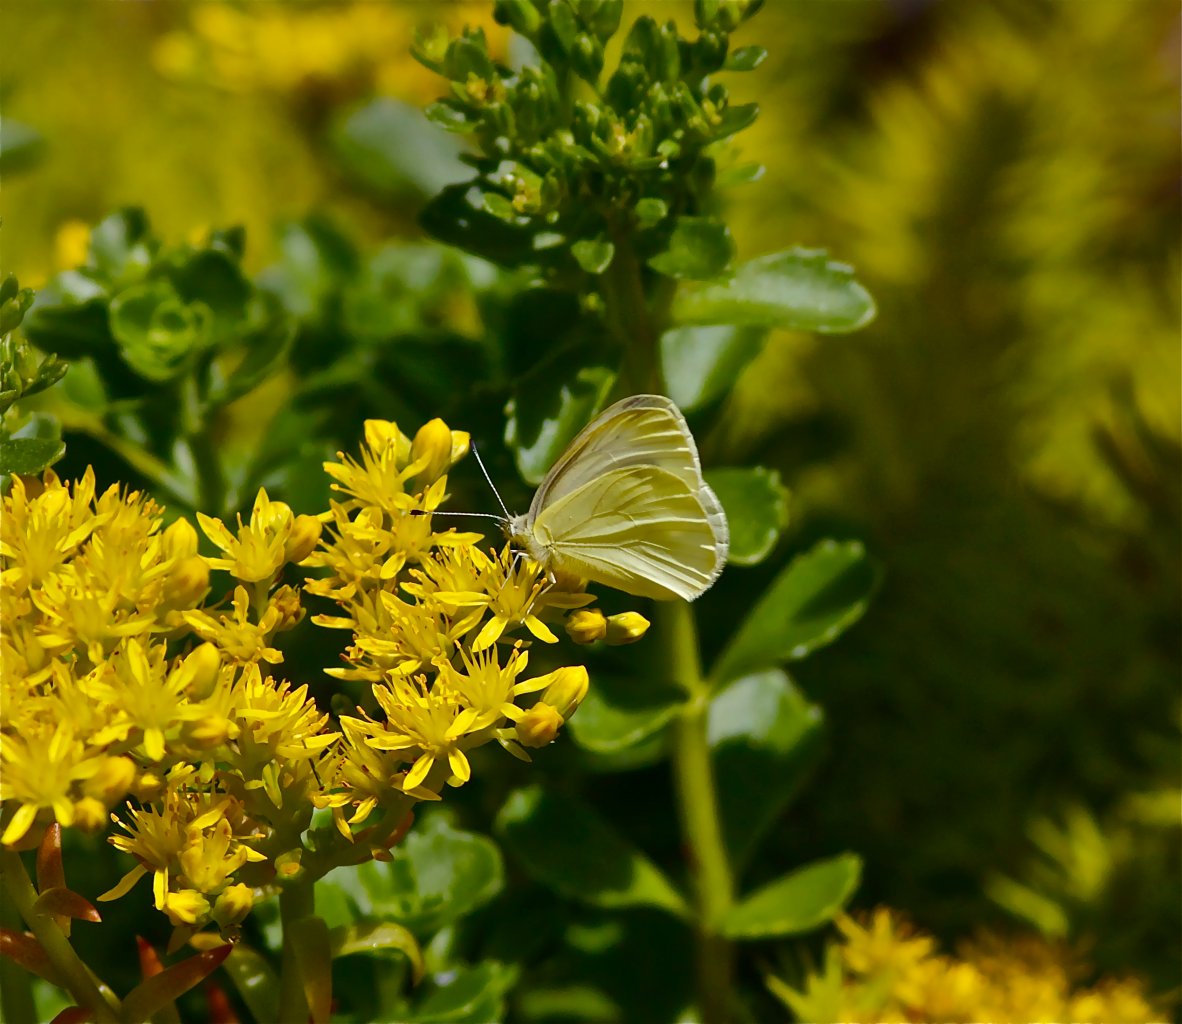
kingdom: Animalia
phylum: Arthropoda
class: Insecta
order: Lepidoptera
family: Pieridae
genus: Pieris
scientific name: Pieris marginalis
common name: Margined White
